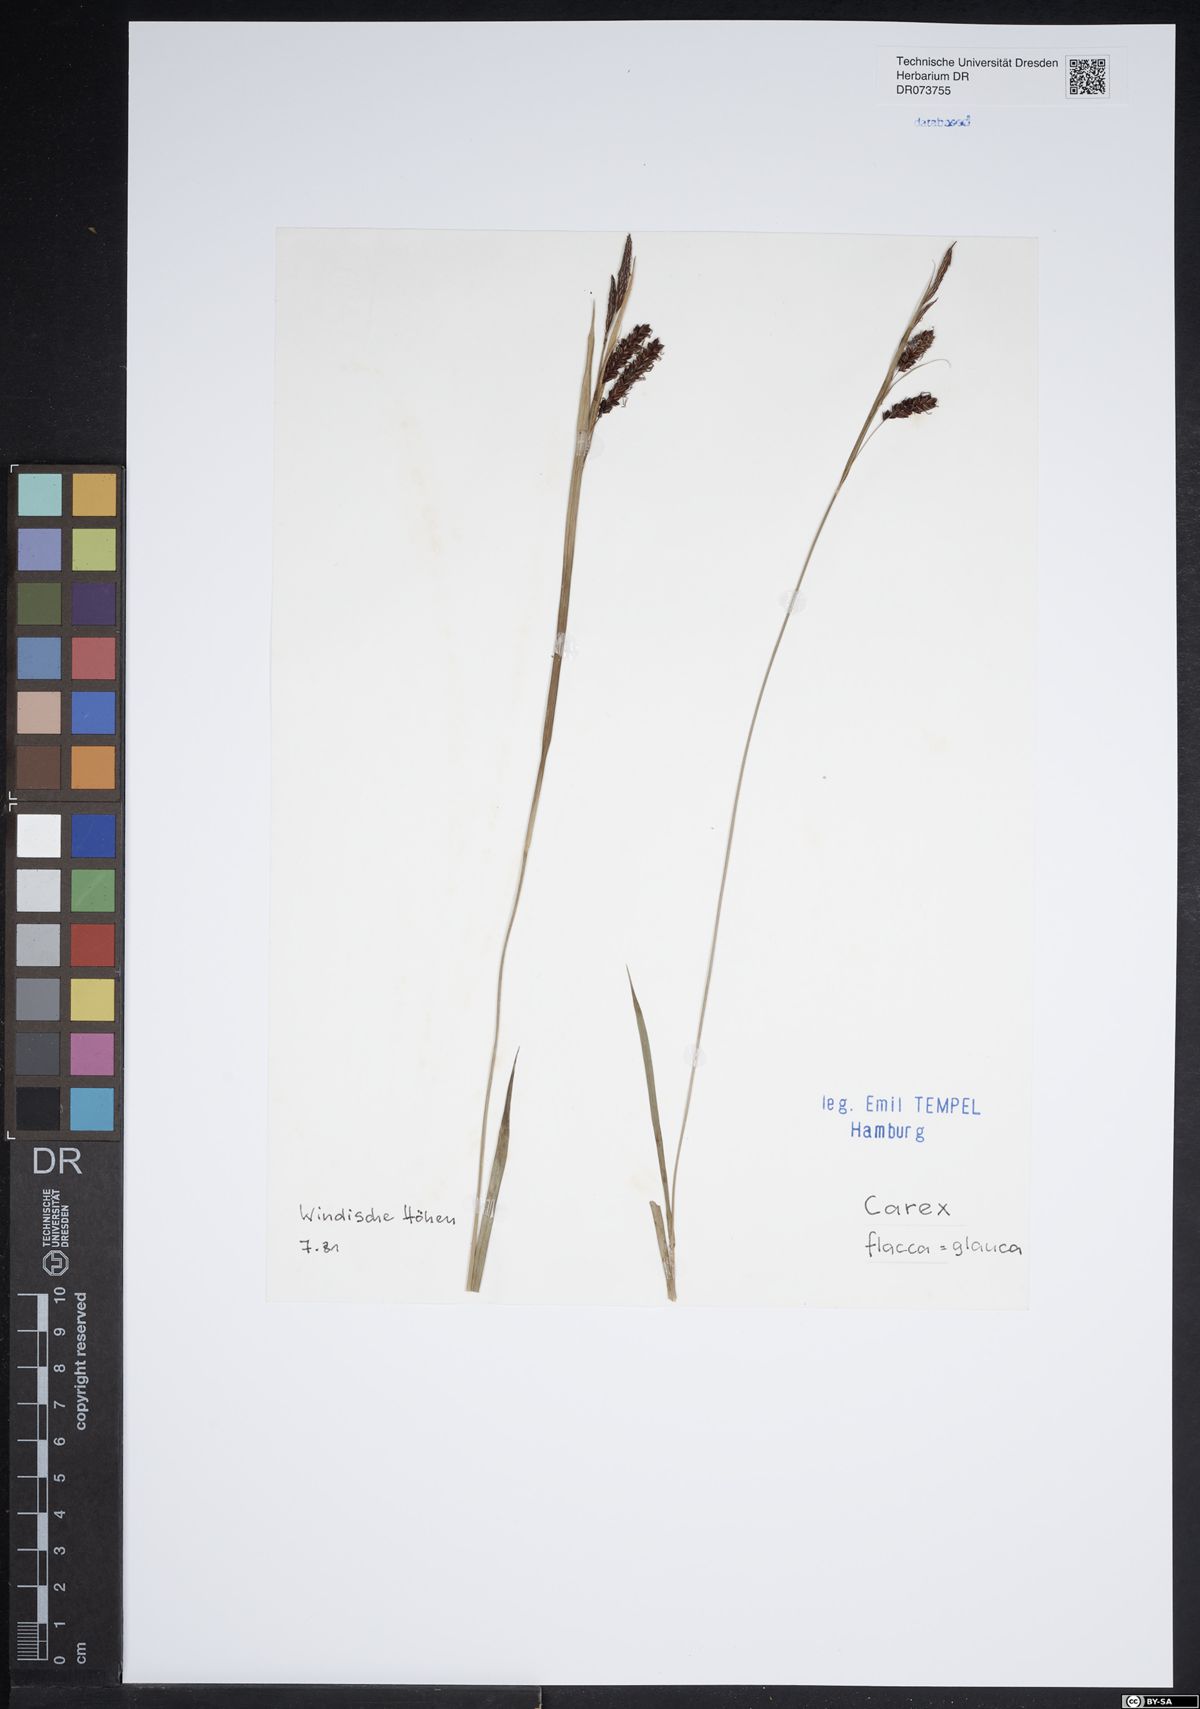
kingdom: Plantae
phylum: Tracheophyta
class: Liliopsida
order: Poales
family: Cyperaceae
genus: Carex
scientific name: Carex flacca
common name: Glaucous sedge
